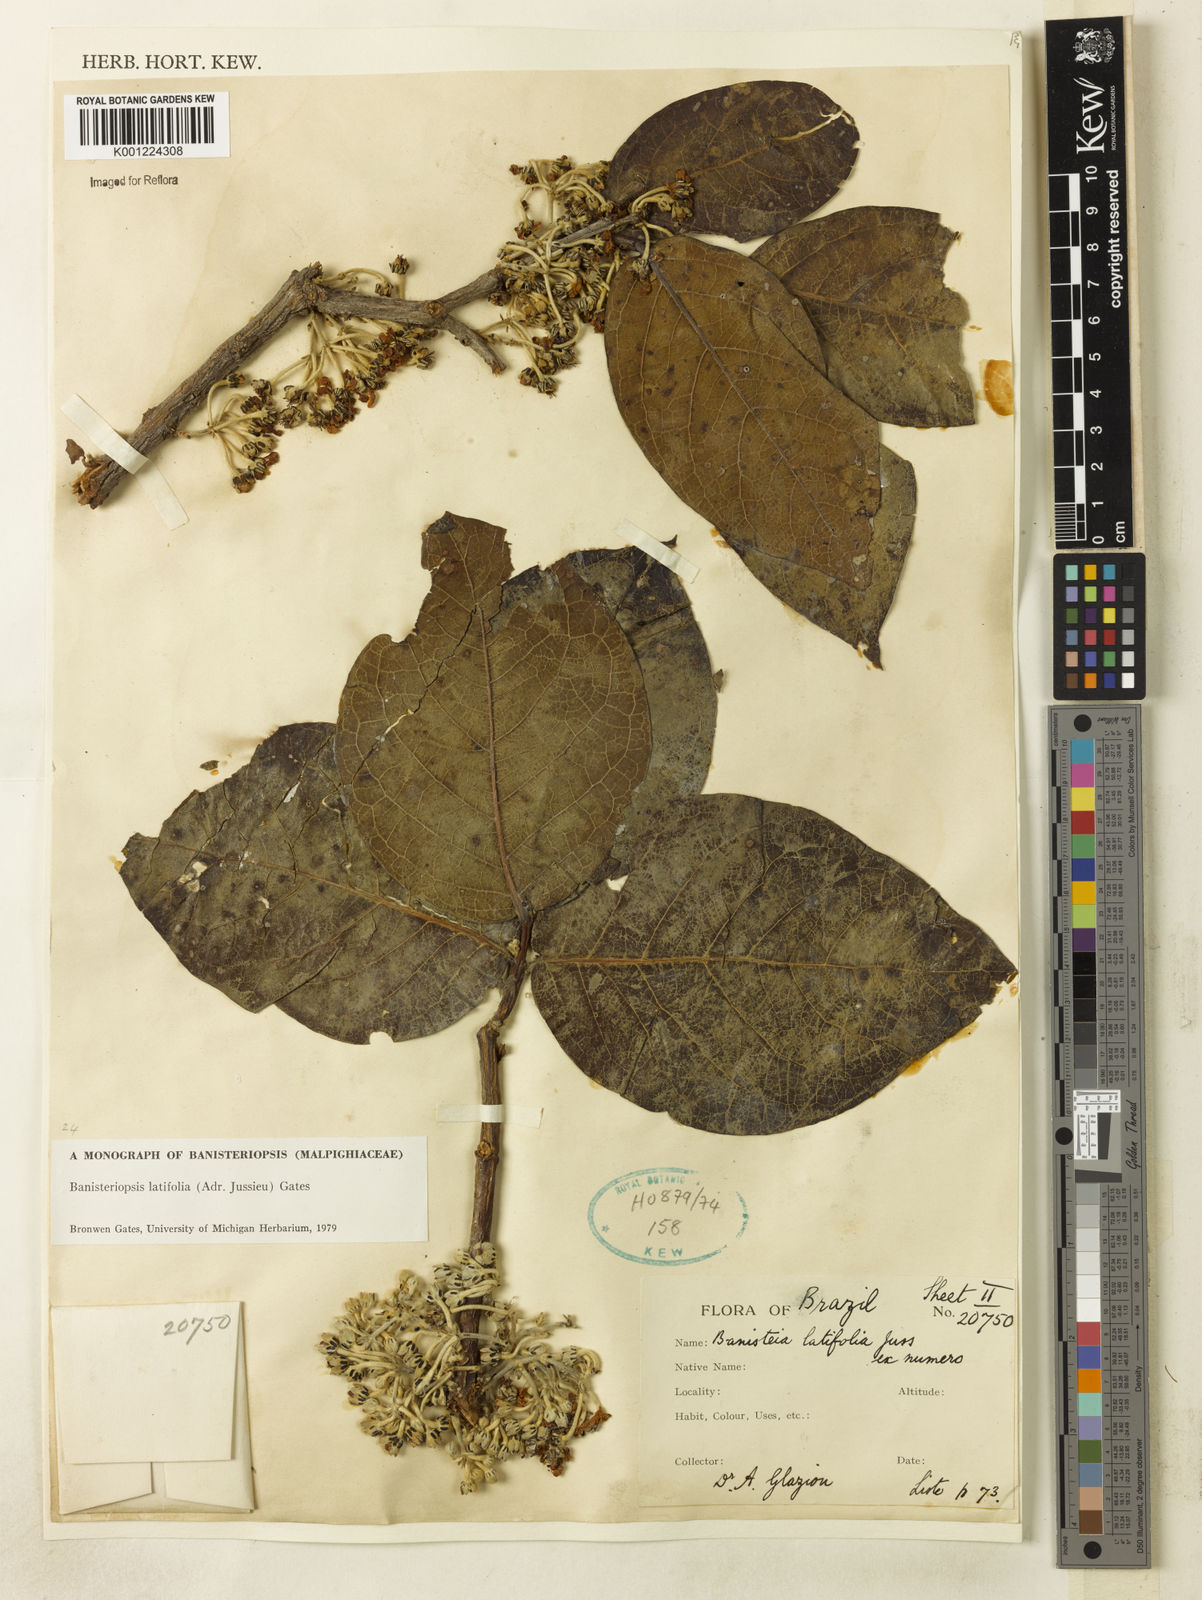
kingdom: Plantae
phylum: Tracheophyta
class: Magnoliopsida
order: Malpighiales
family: Malpighiaceae
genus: Banisteriopsis
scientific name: Banisteriopsis latifolia
